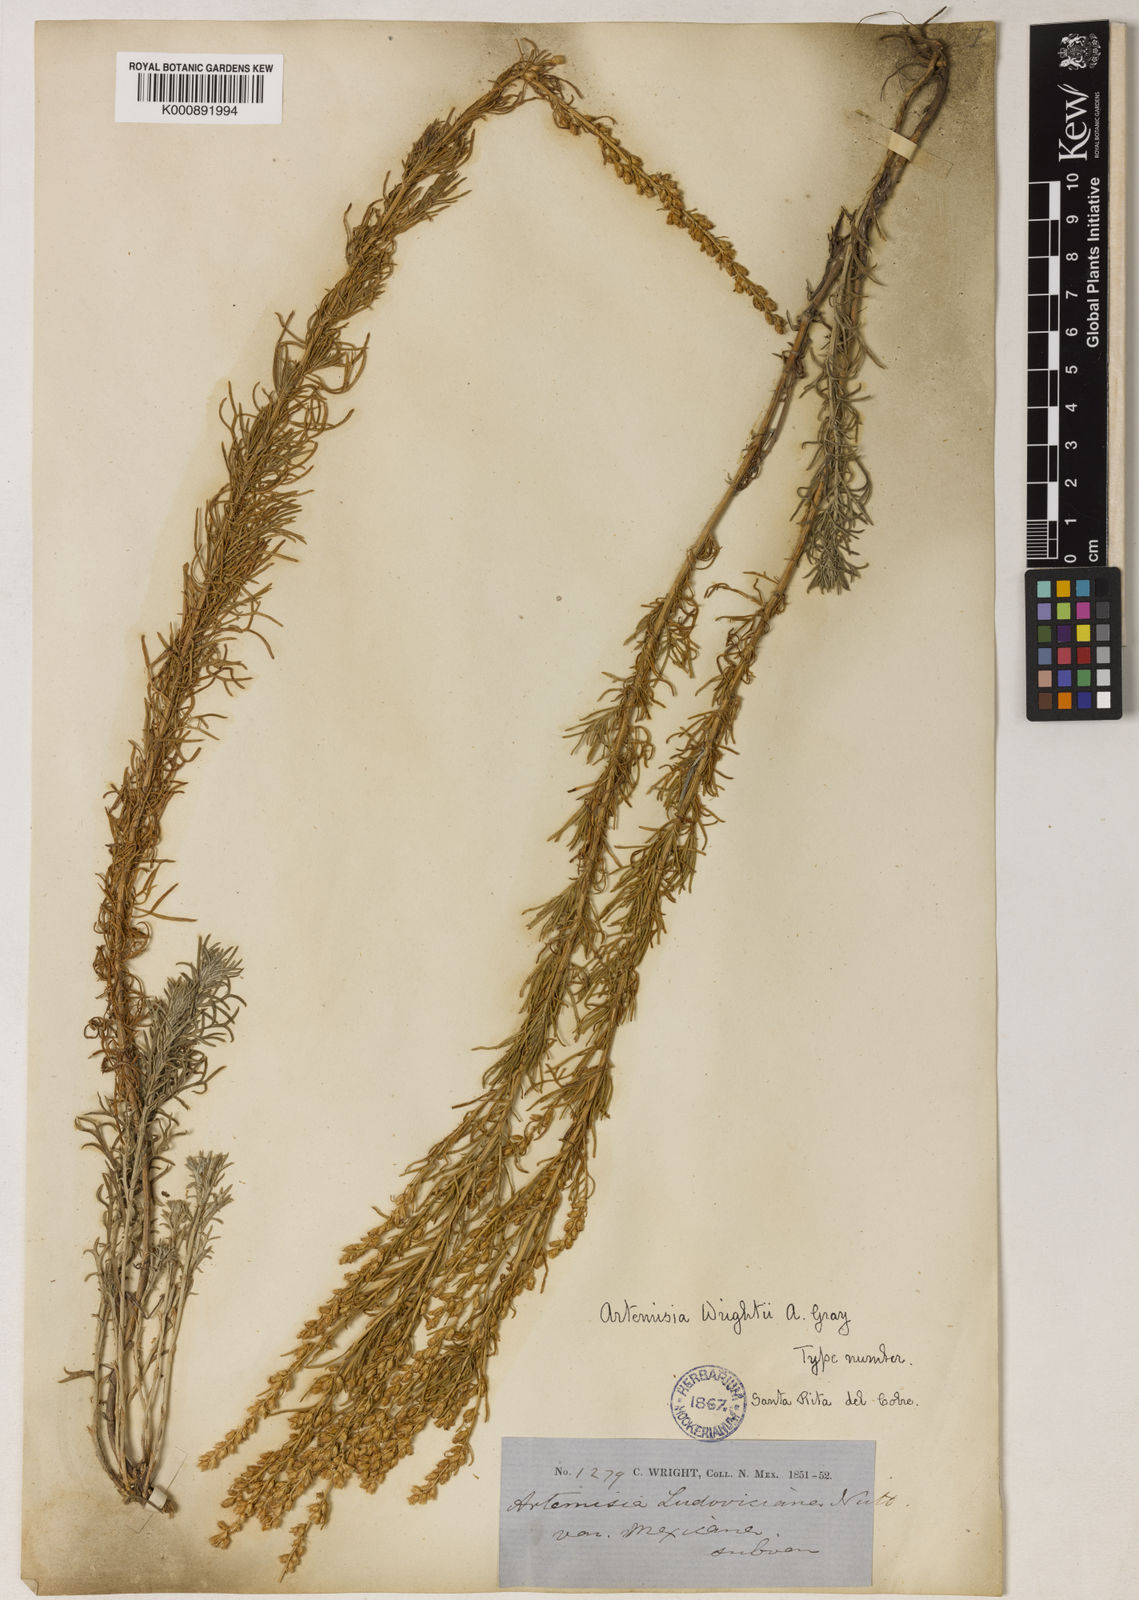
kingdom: Plantae
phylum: Tracheophyta
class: Magnoliopsida
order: Asterales
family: Asteraceae
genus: Artemisia
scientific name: Artemisia carruthii
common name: Carruth wormwood
